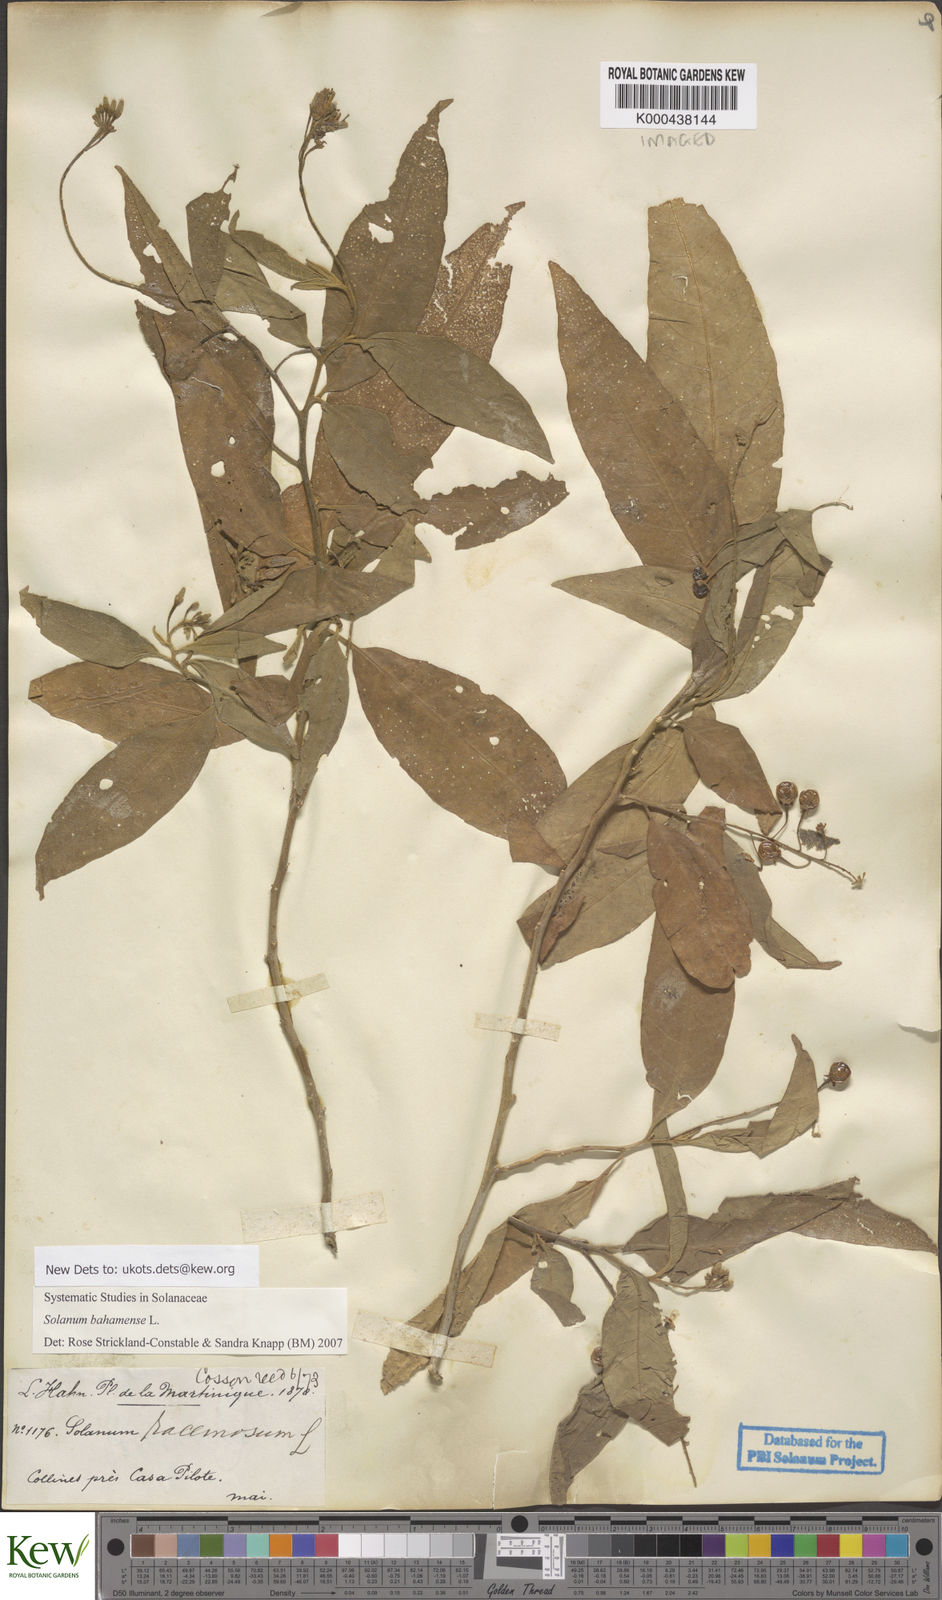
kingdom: Plantae
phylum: Tracheophyta
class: Magnoliopsida
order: Solanales
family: Solanaceae
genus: Solanum
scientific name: Solanum bahamense
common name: Canker-berry
